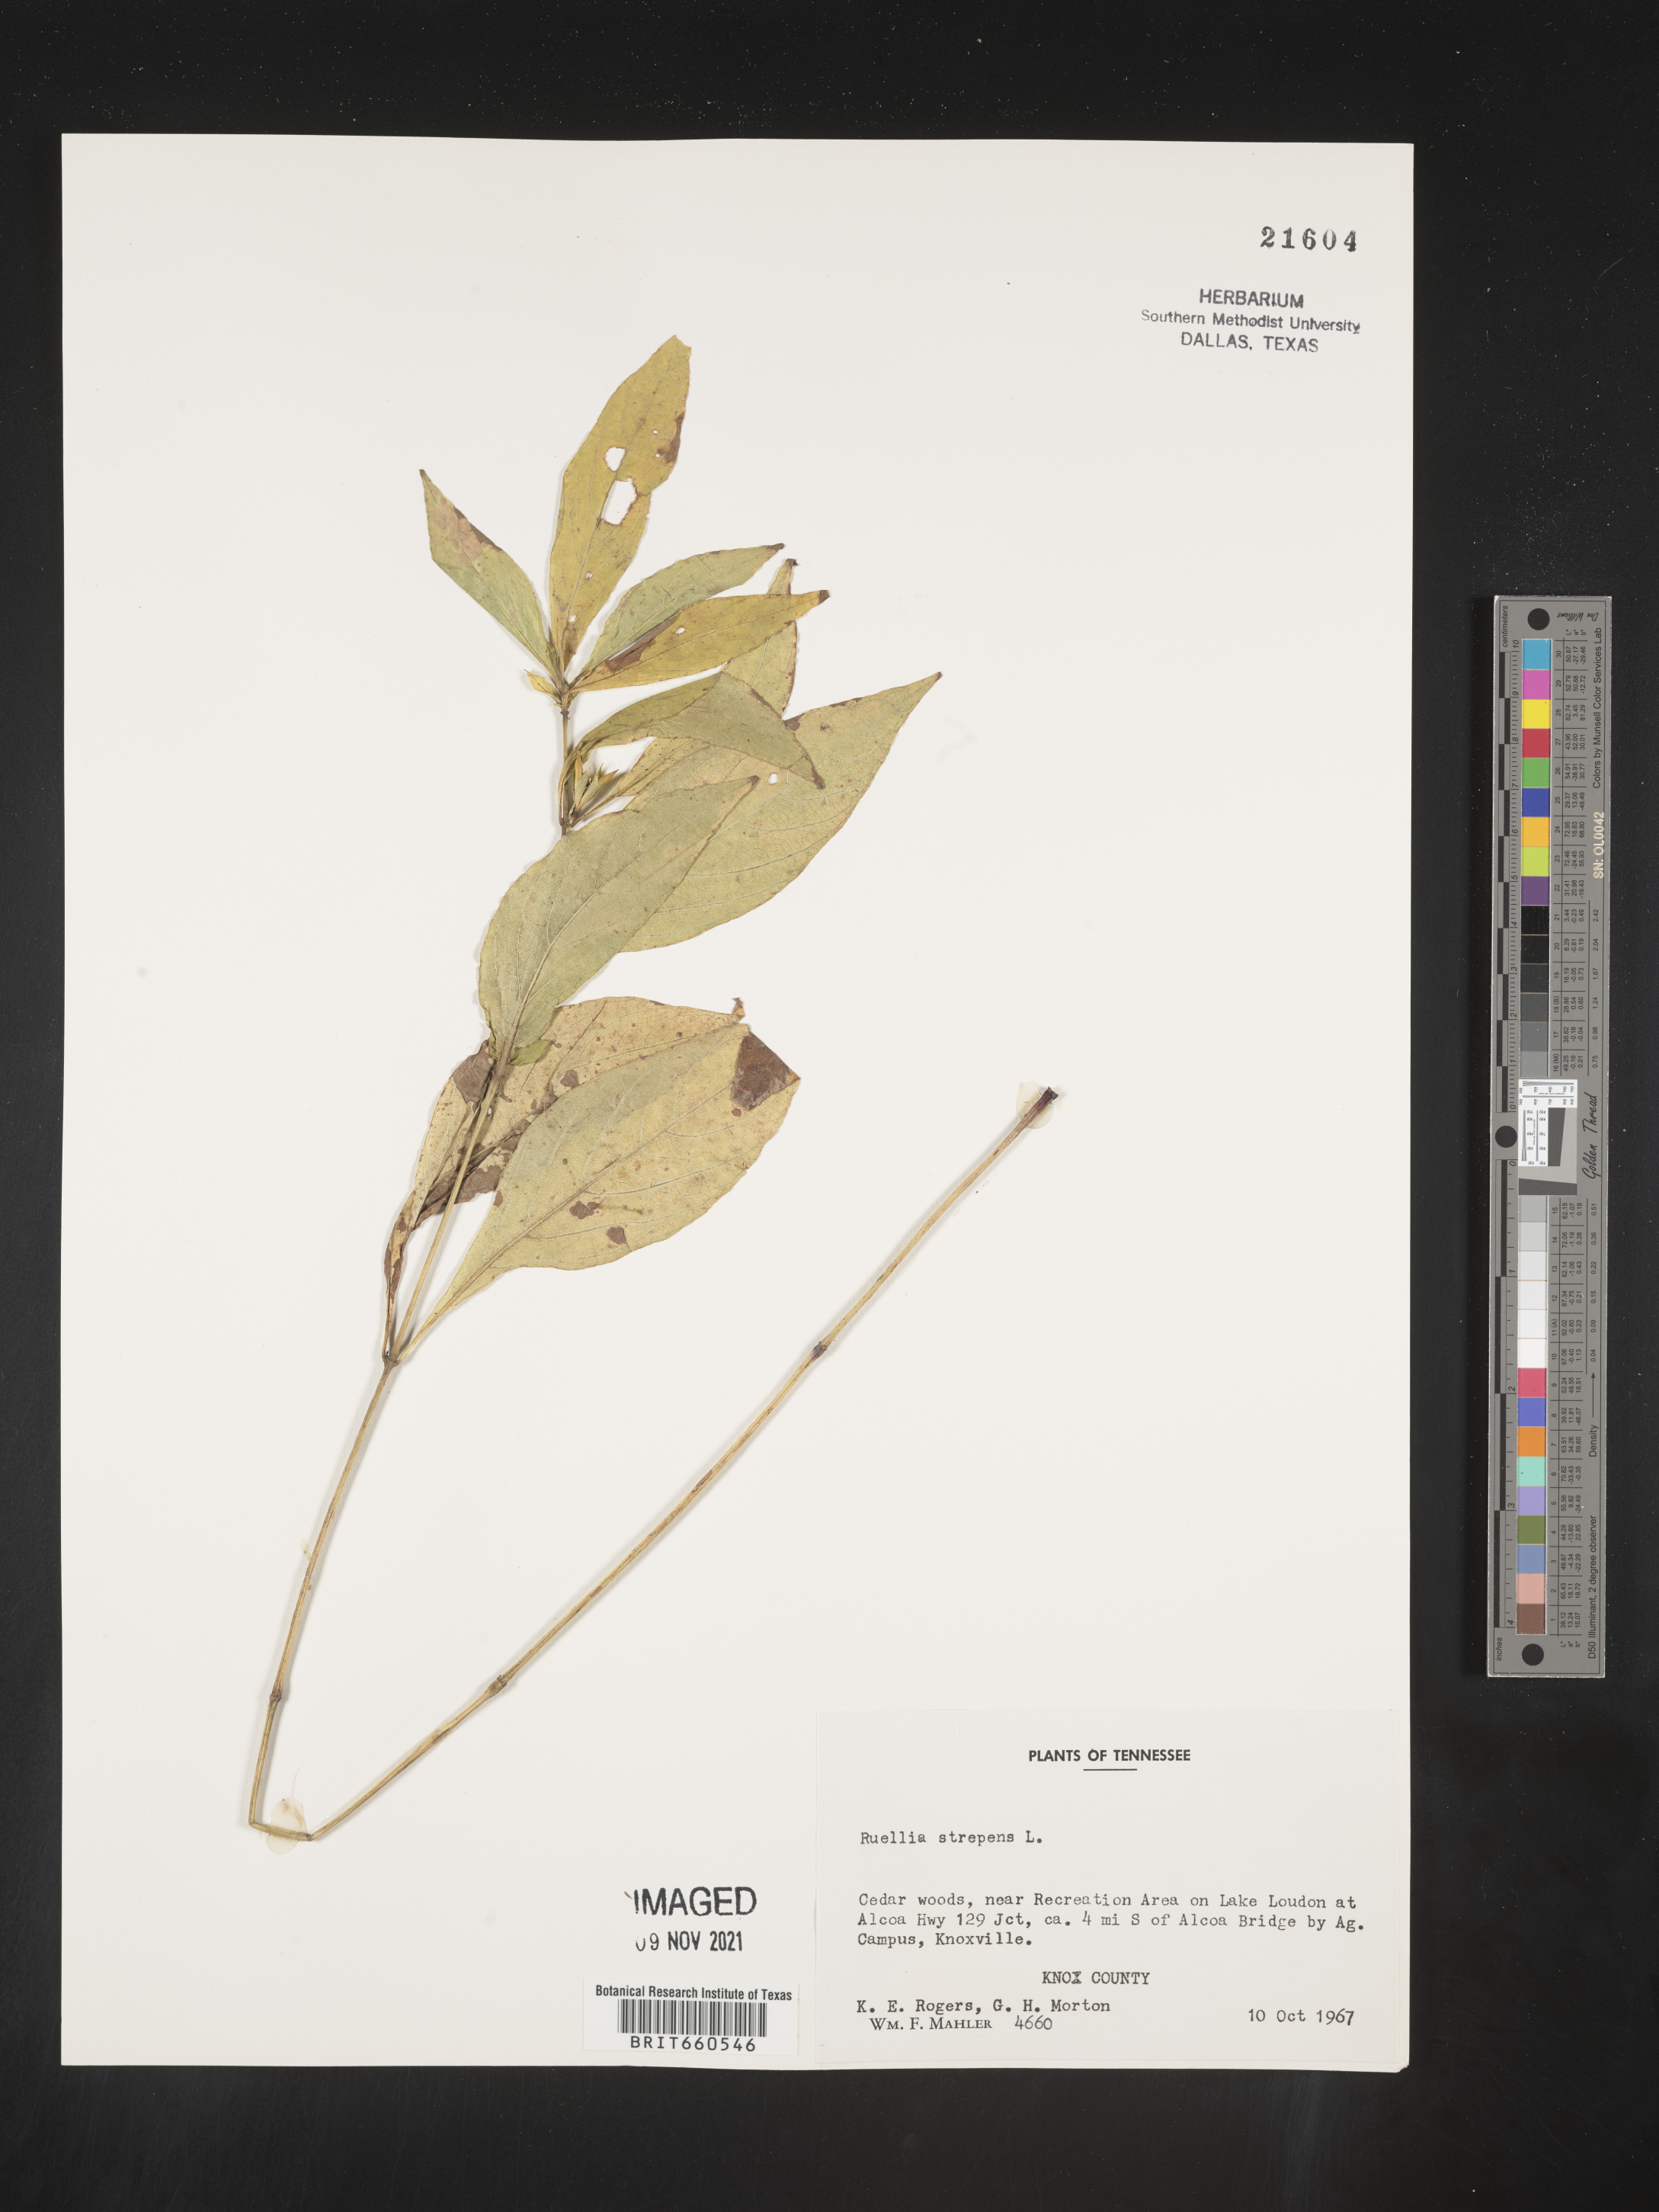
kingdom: Plantae
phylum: Tracheophyta
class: Magnoliopsida
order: Lamiales
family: Acanthaceae
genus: Ruellia
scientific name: Ruellia strepens
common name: Limestone wild petunia
